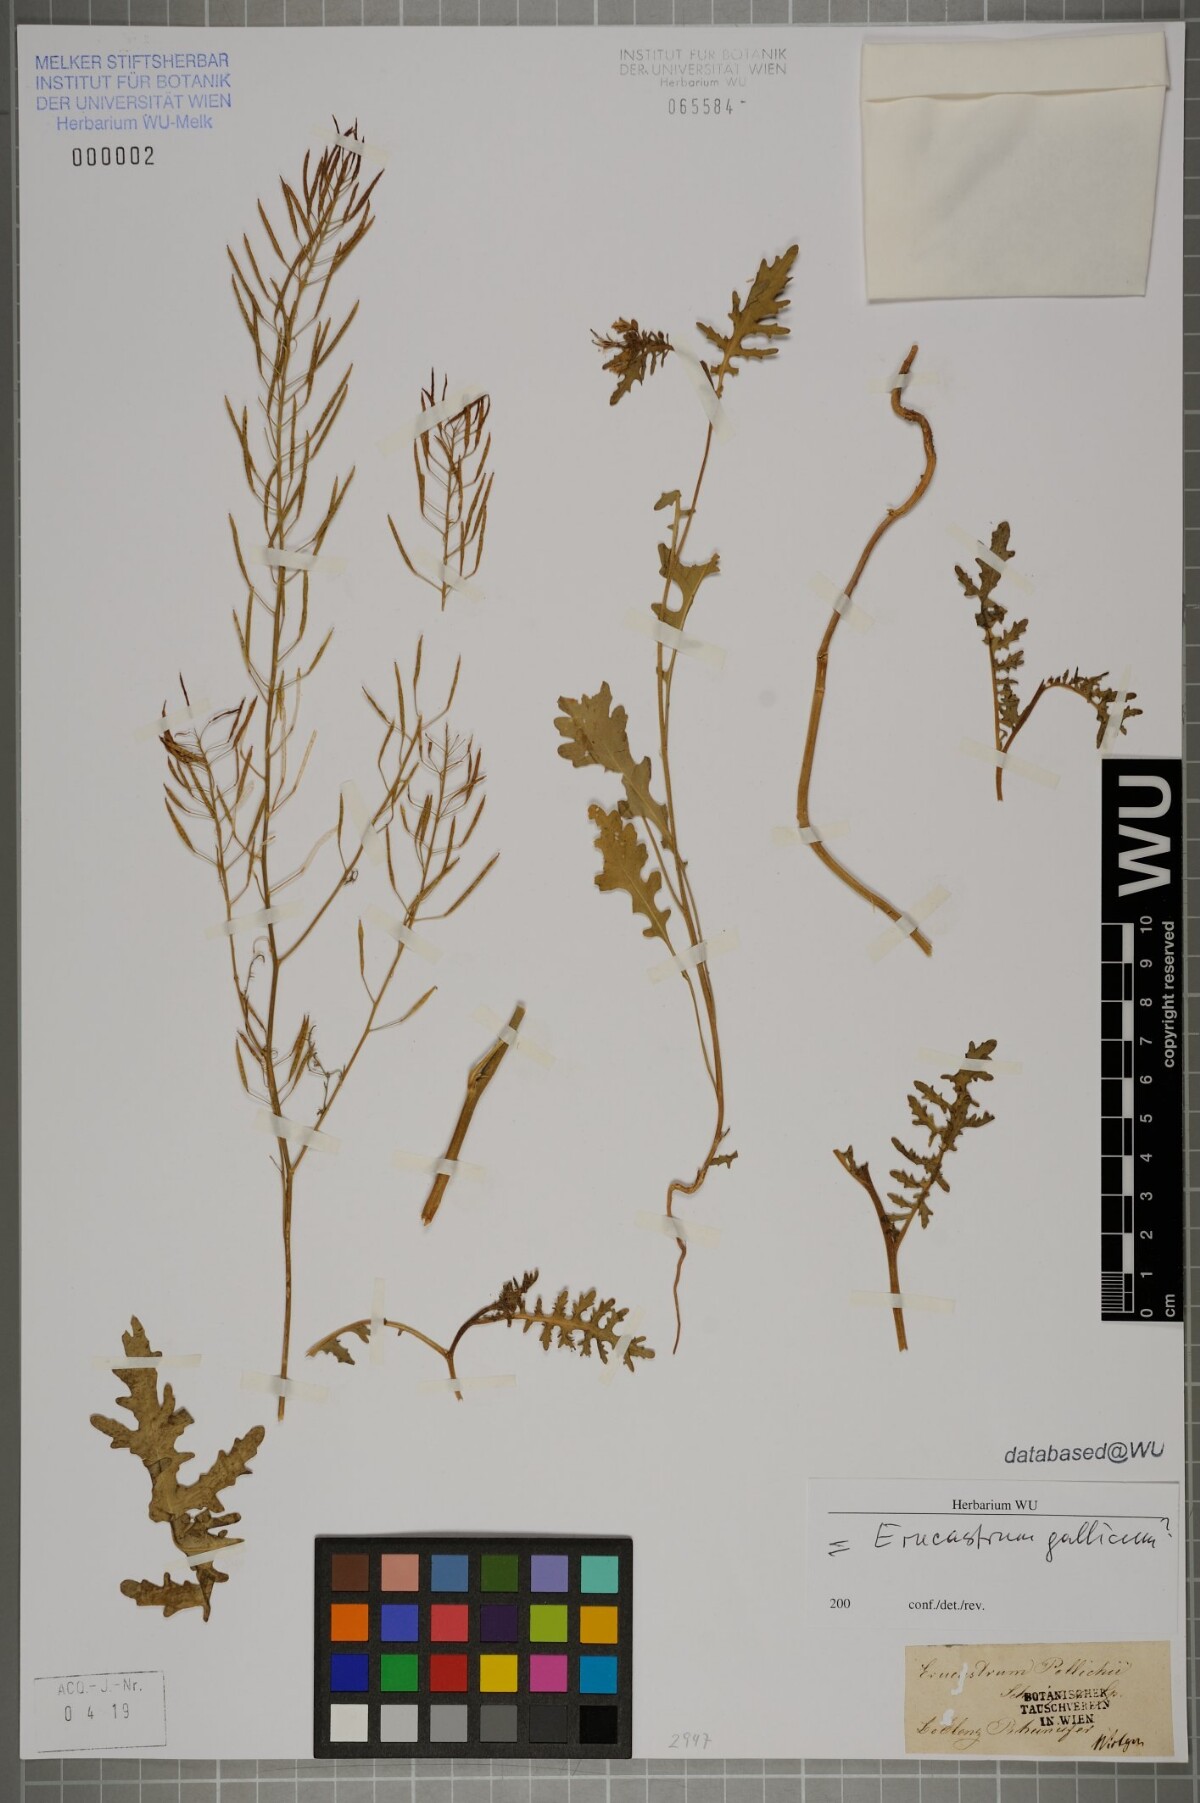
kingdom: Plantae
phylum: Tracheophyta
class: Magnoliopsida
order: Brassicales
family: Brassicaceae
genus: Erucastrum
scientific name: Erucastrum gallicum
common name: Hairy rocket
